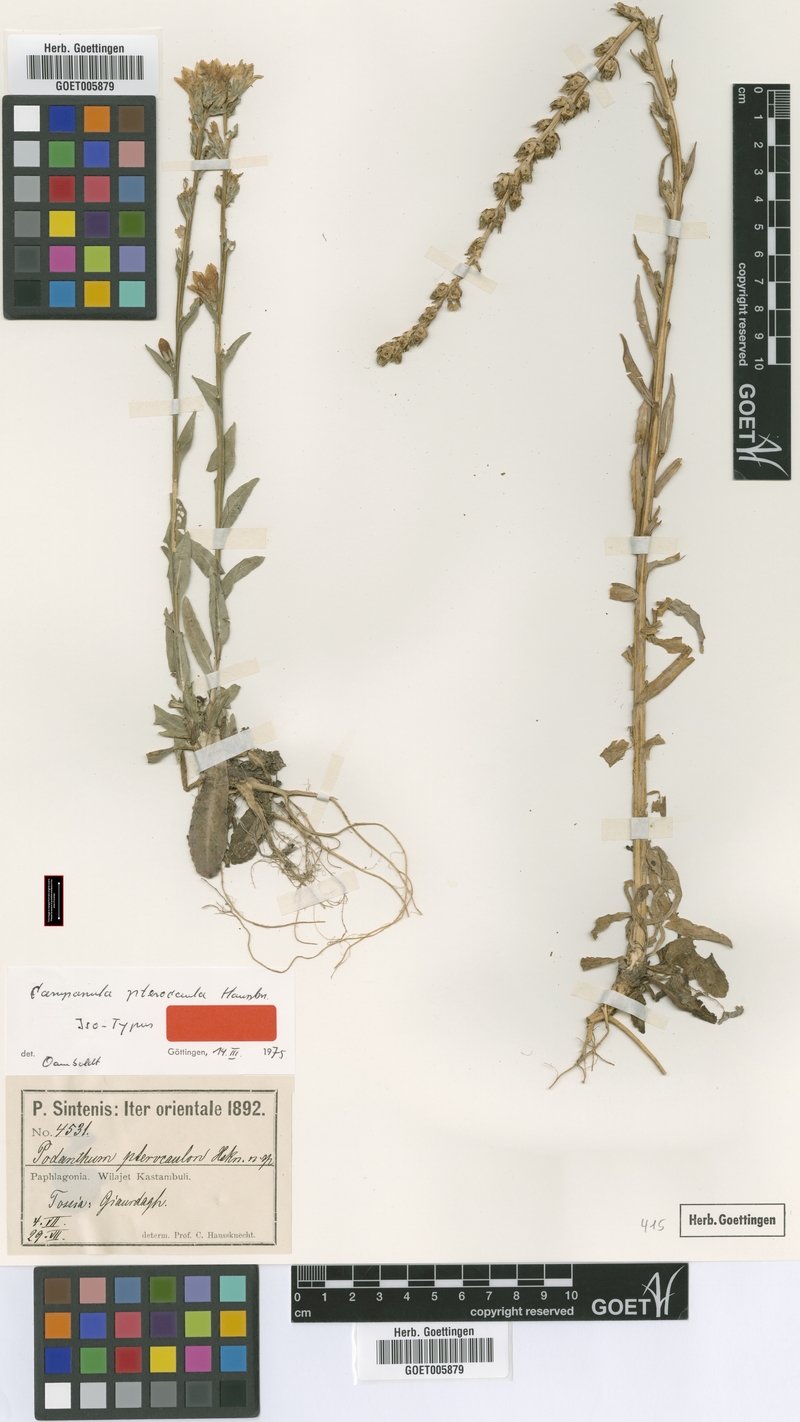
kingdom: Plantae
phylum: Tracheophyta
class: Magnoliopsida
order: Asterales
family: Campanulaceae
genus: Campanula
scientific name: Campanula pterocaula
